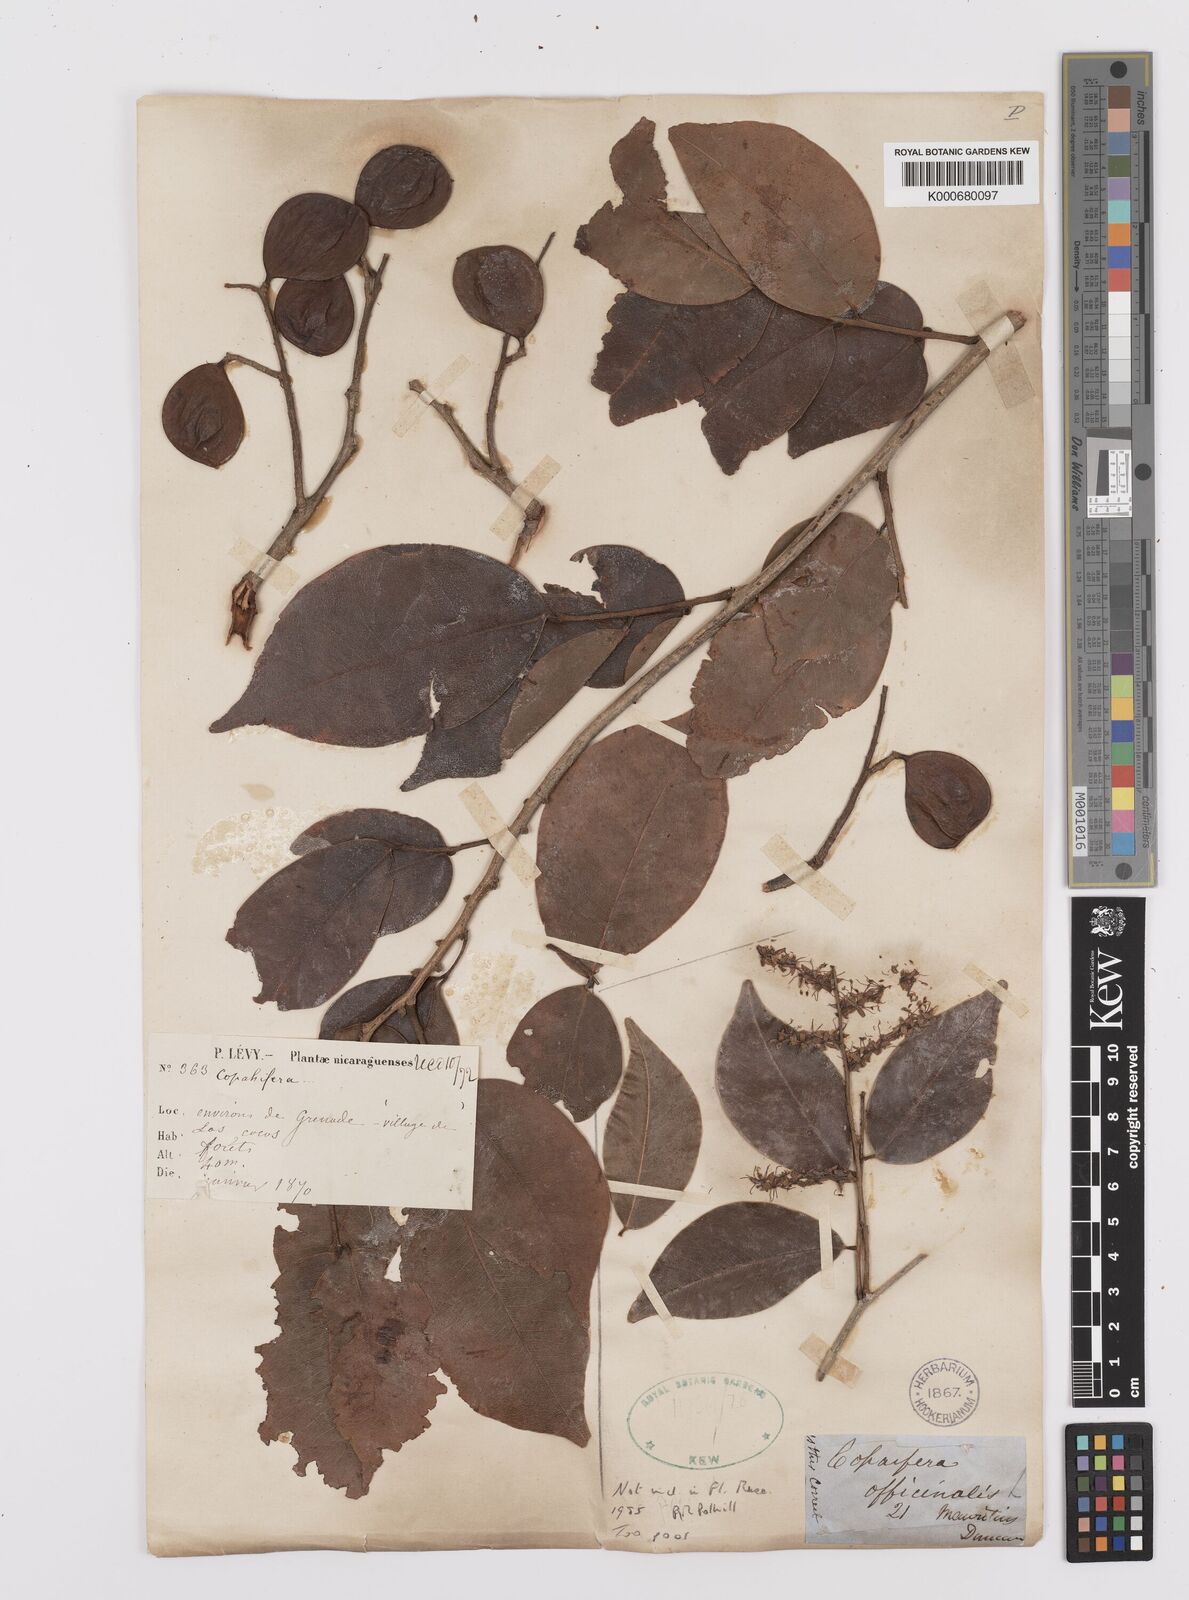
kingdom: Plantae
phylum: Tracheophyta
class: Magnoliopsida
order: Fabales
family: Fabaceae
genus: Copaifera
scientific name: Copaifera
